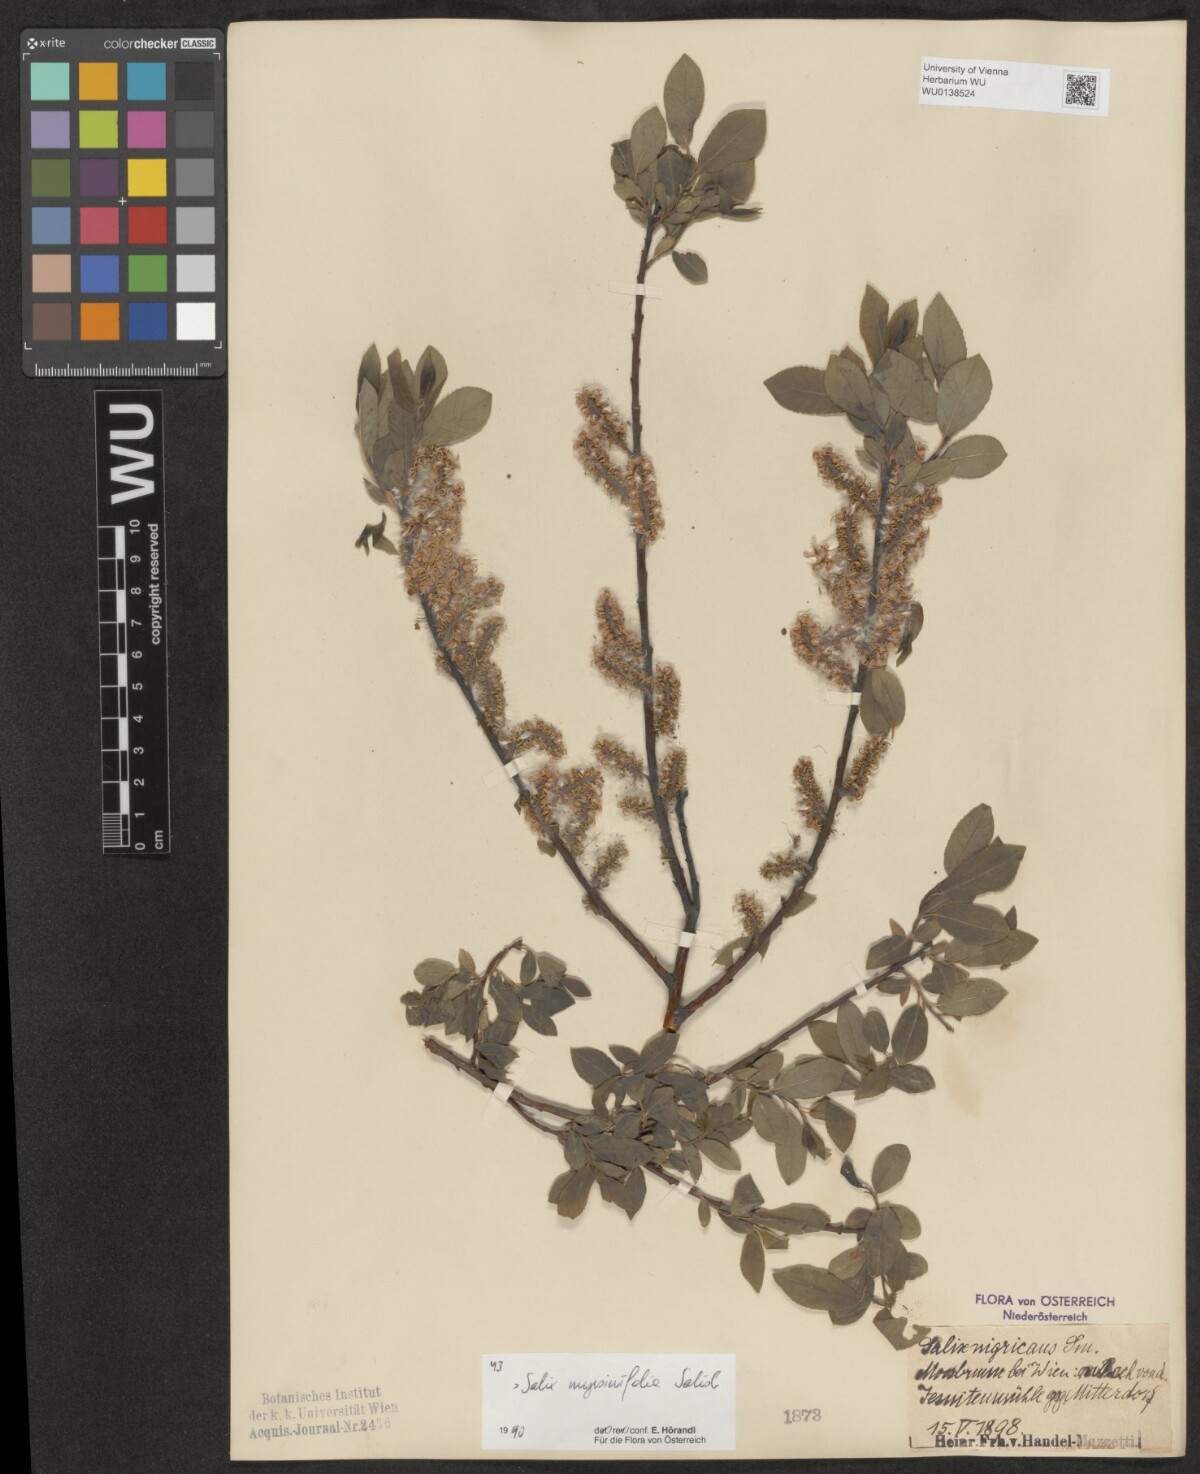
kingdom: Plantae
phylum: Tracheophyta
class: Magnoliopsida
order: Malpighiales
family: Salicaceae
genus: Salix
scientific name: Salix myrsinifolia
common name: Dark-leaved willow
